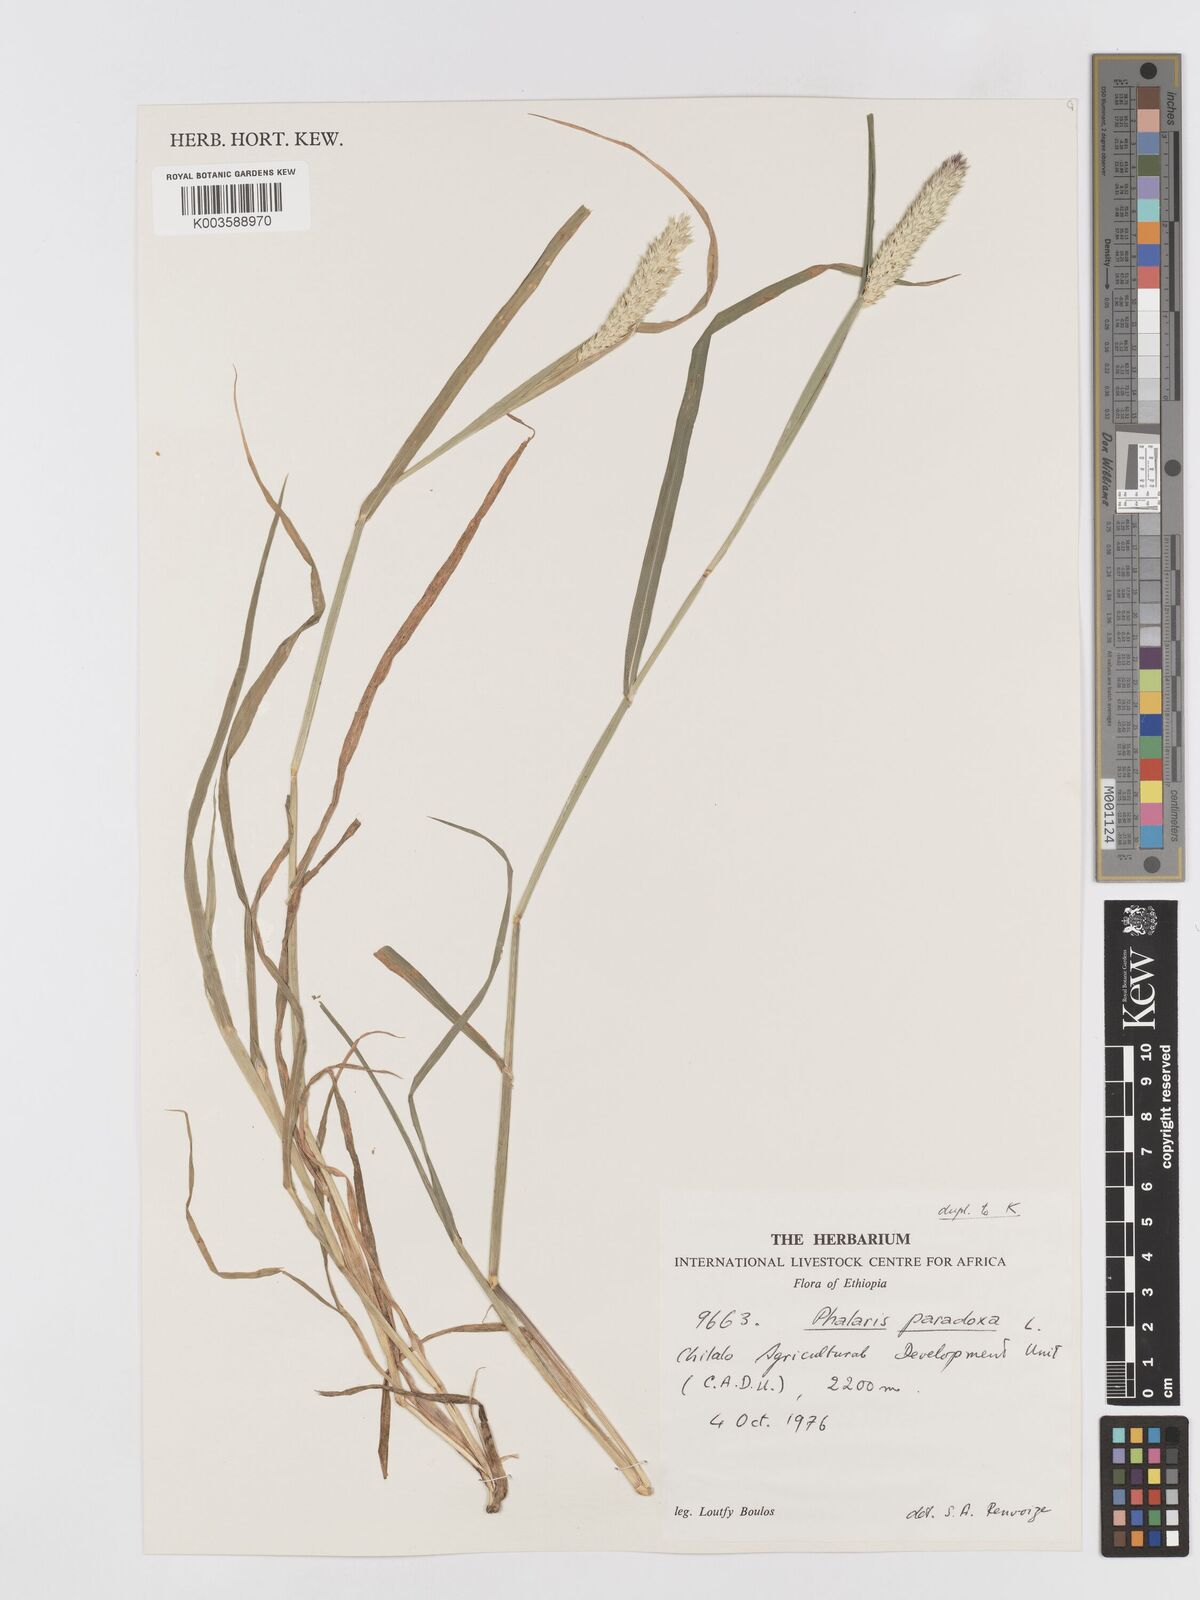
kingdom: Plantae
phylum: Tracheophyta
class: Liliopsida
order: Poales
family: Poaceae
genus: Phalaris
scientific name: Phalaris paradoxa
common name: Awned canary-grass
